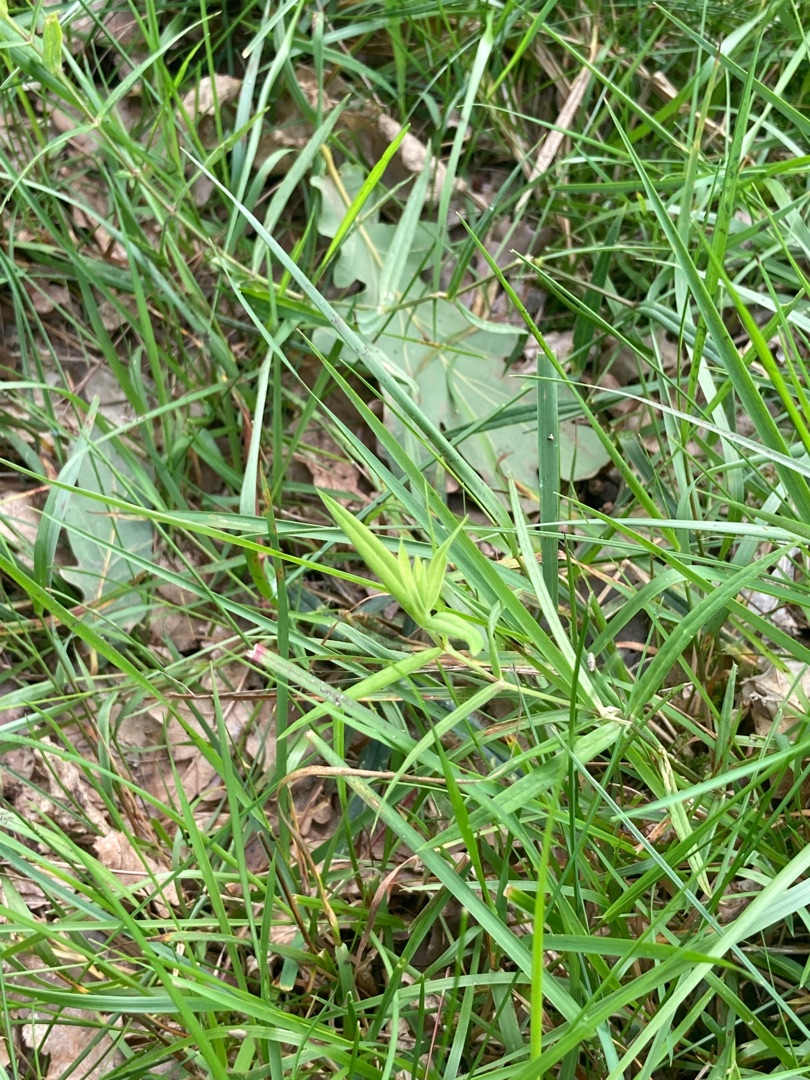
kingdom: Plantae
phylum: Tracheophyta
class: Magnoliopsida
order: Caryophyllales
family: Caryophyllaceae
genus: Rabelera
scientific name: Rabelera holostea
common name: Stor fladstjerne
